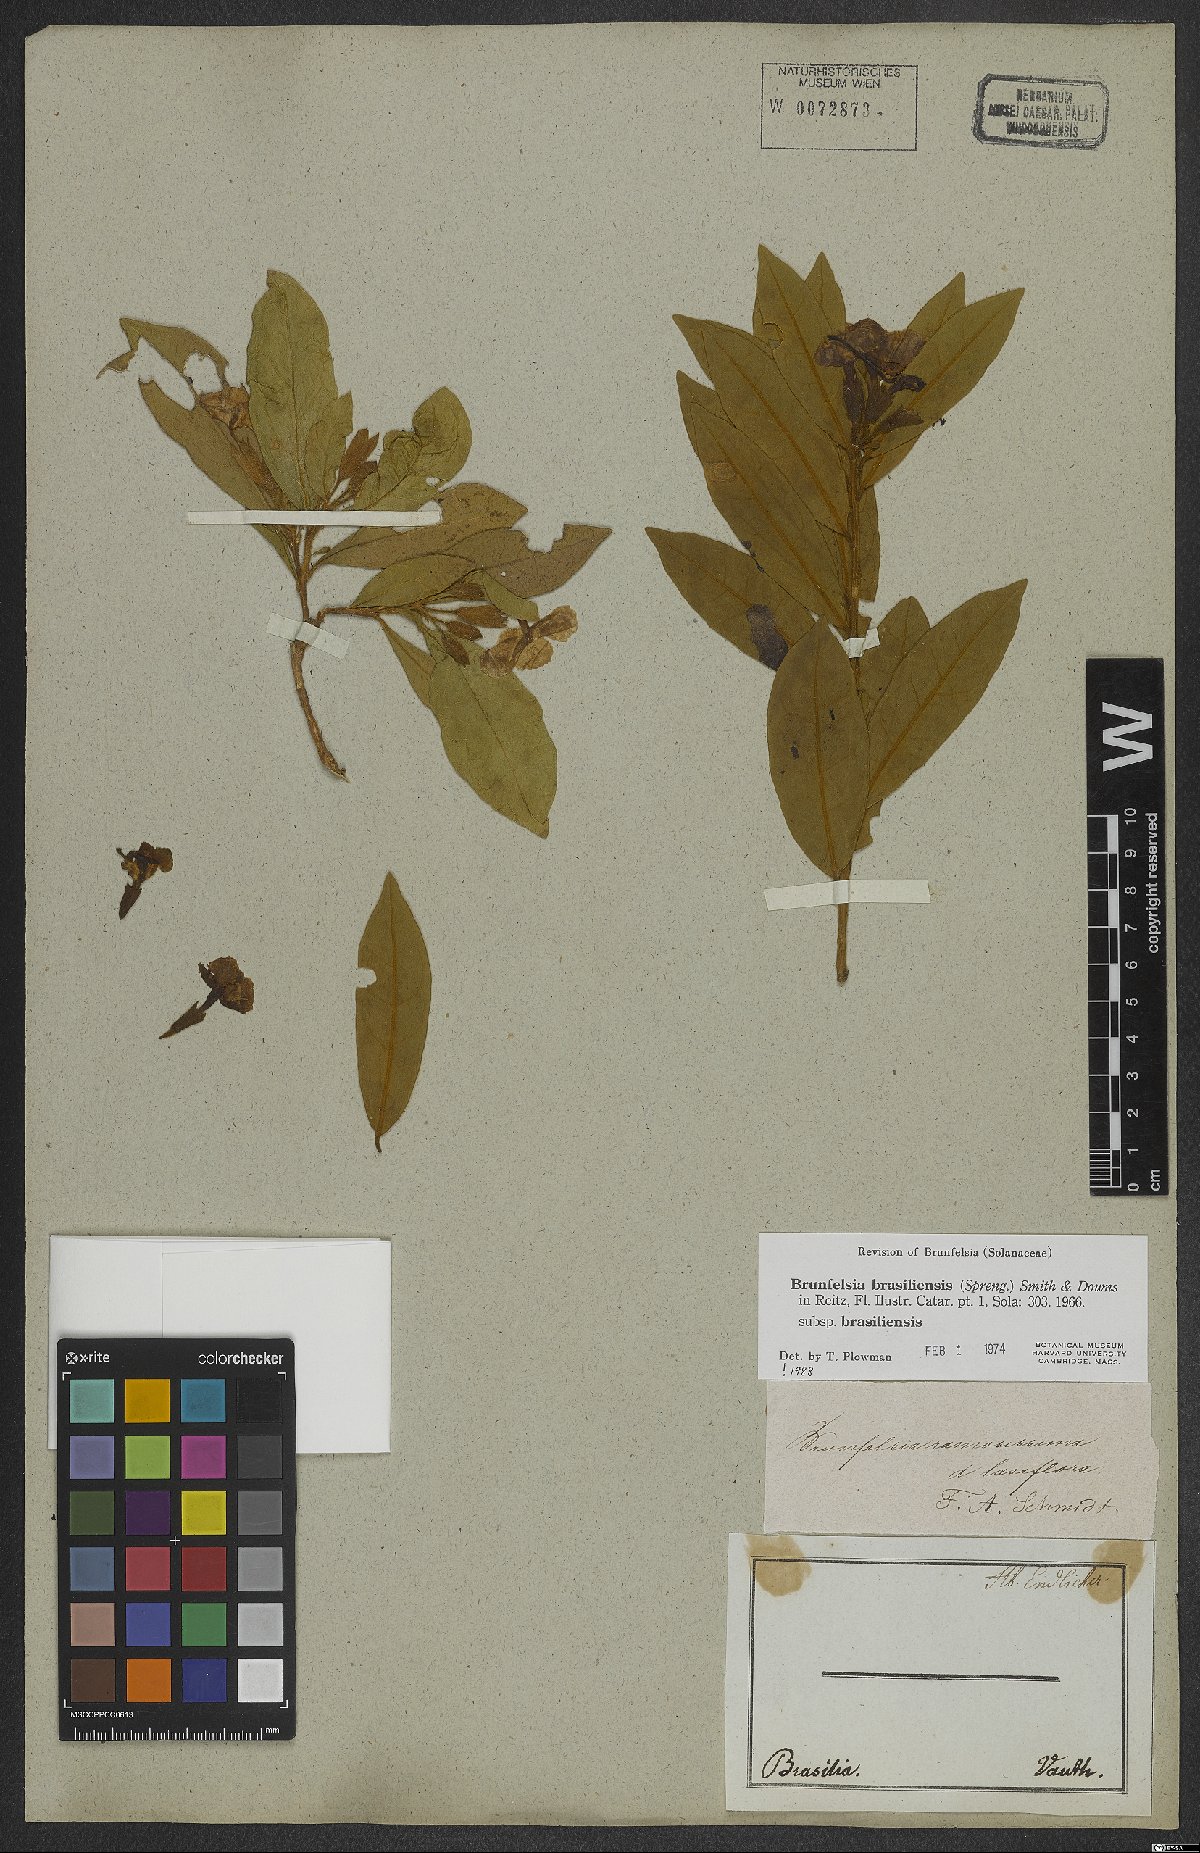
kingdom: Plantae
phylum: Tracheophyta
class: Magnoliopsida
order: Solanales
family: Solanaceae
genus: Brunfelsia
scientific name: Brunfelsia brasiliensis
